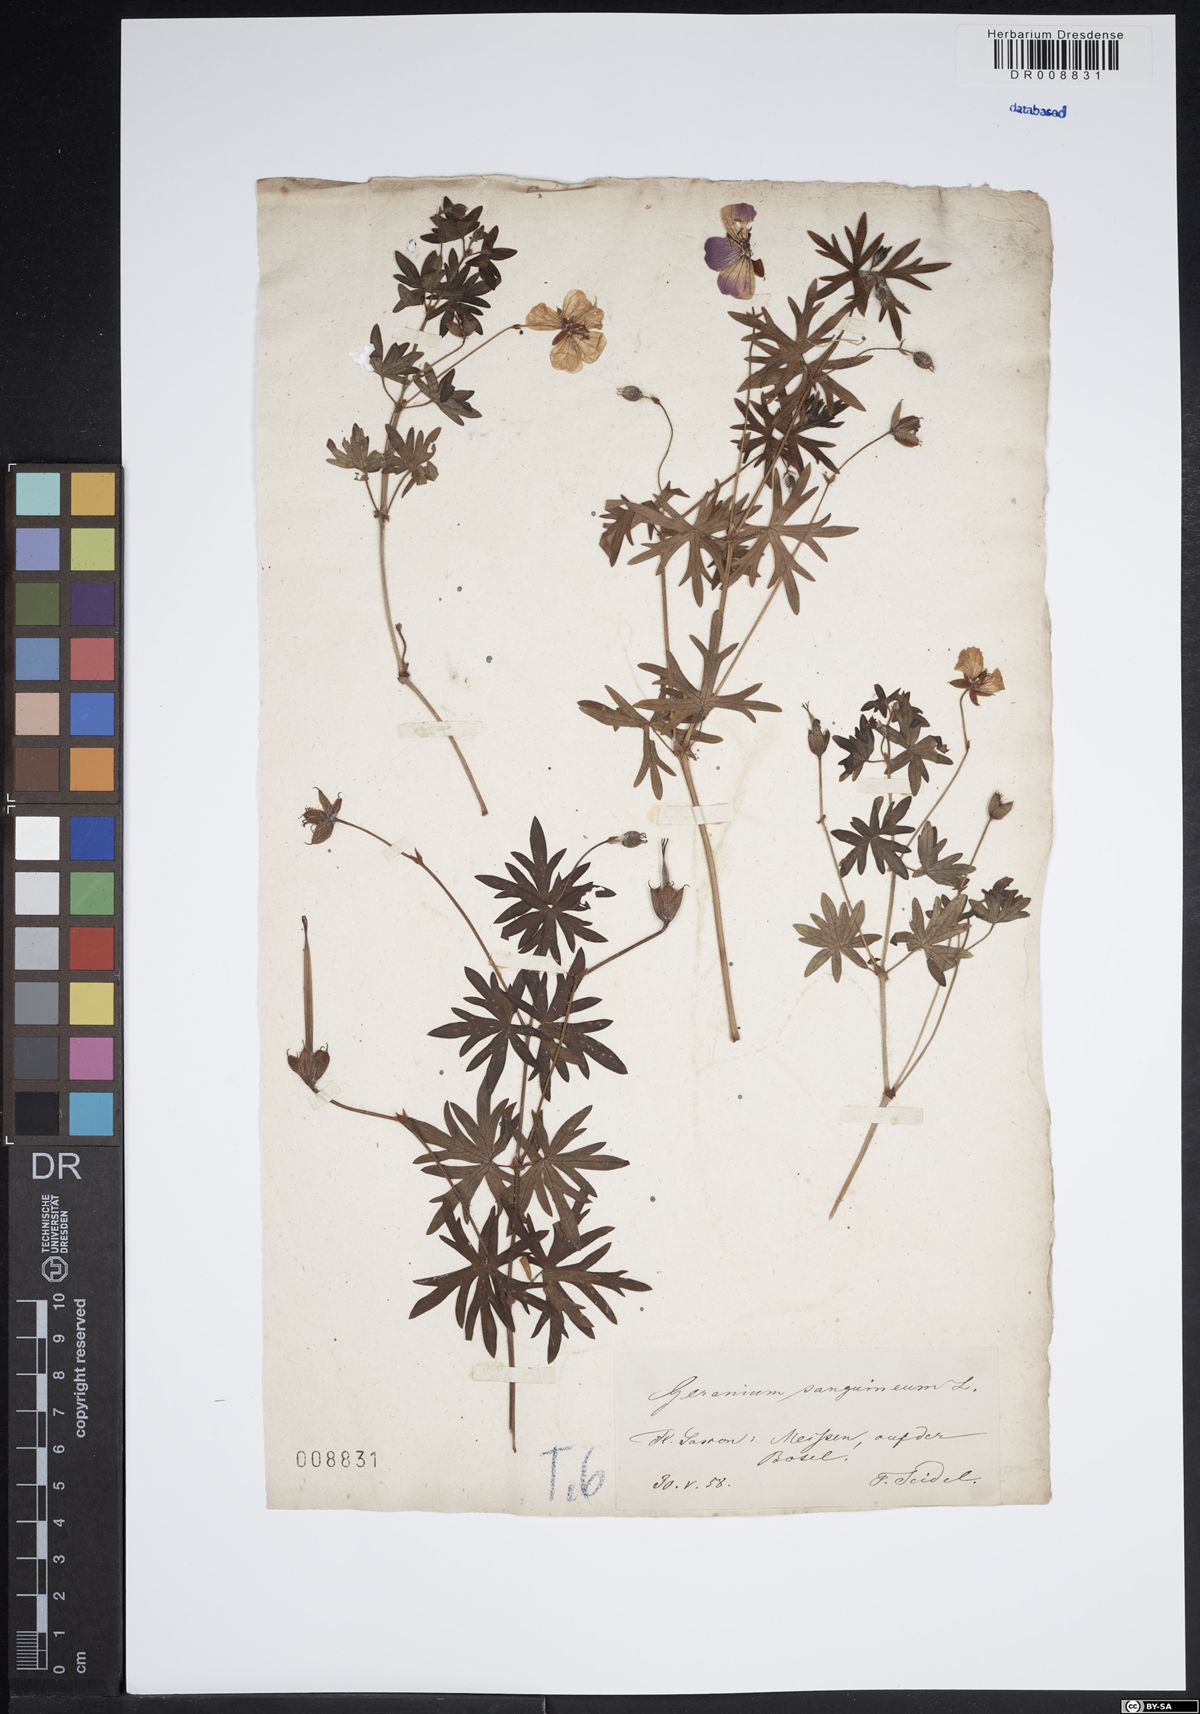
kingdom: Plantae
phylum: Tracheophyta
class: Magnoliopsida
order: Geraniales
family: Geraniaceae
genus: Geranium
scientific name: Geranium sanguineum
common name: Bloody crane's-bill
